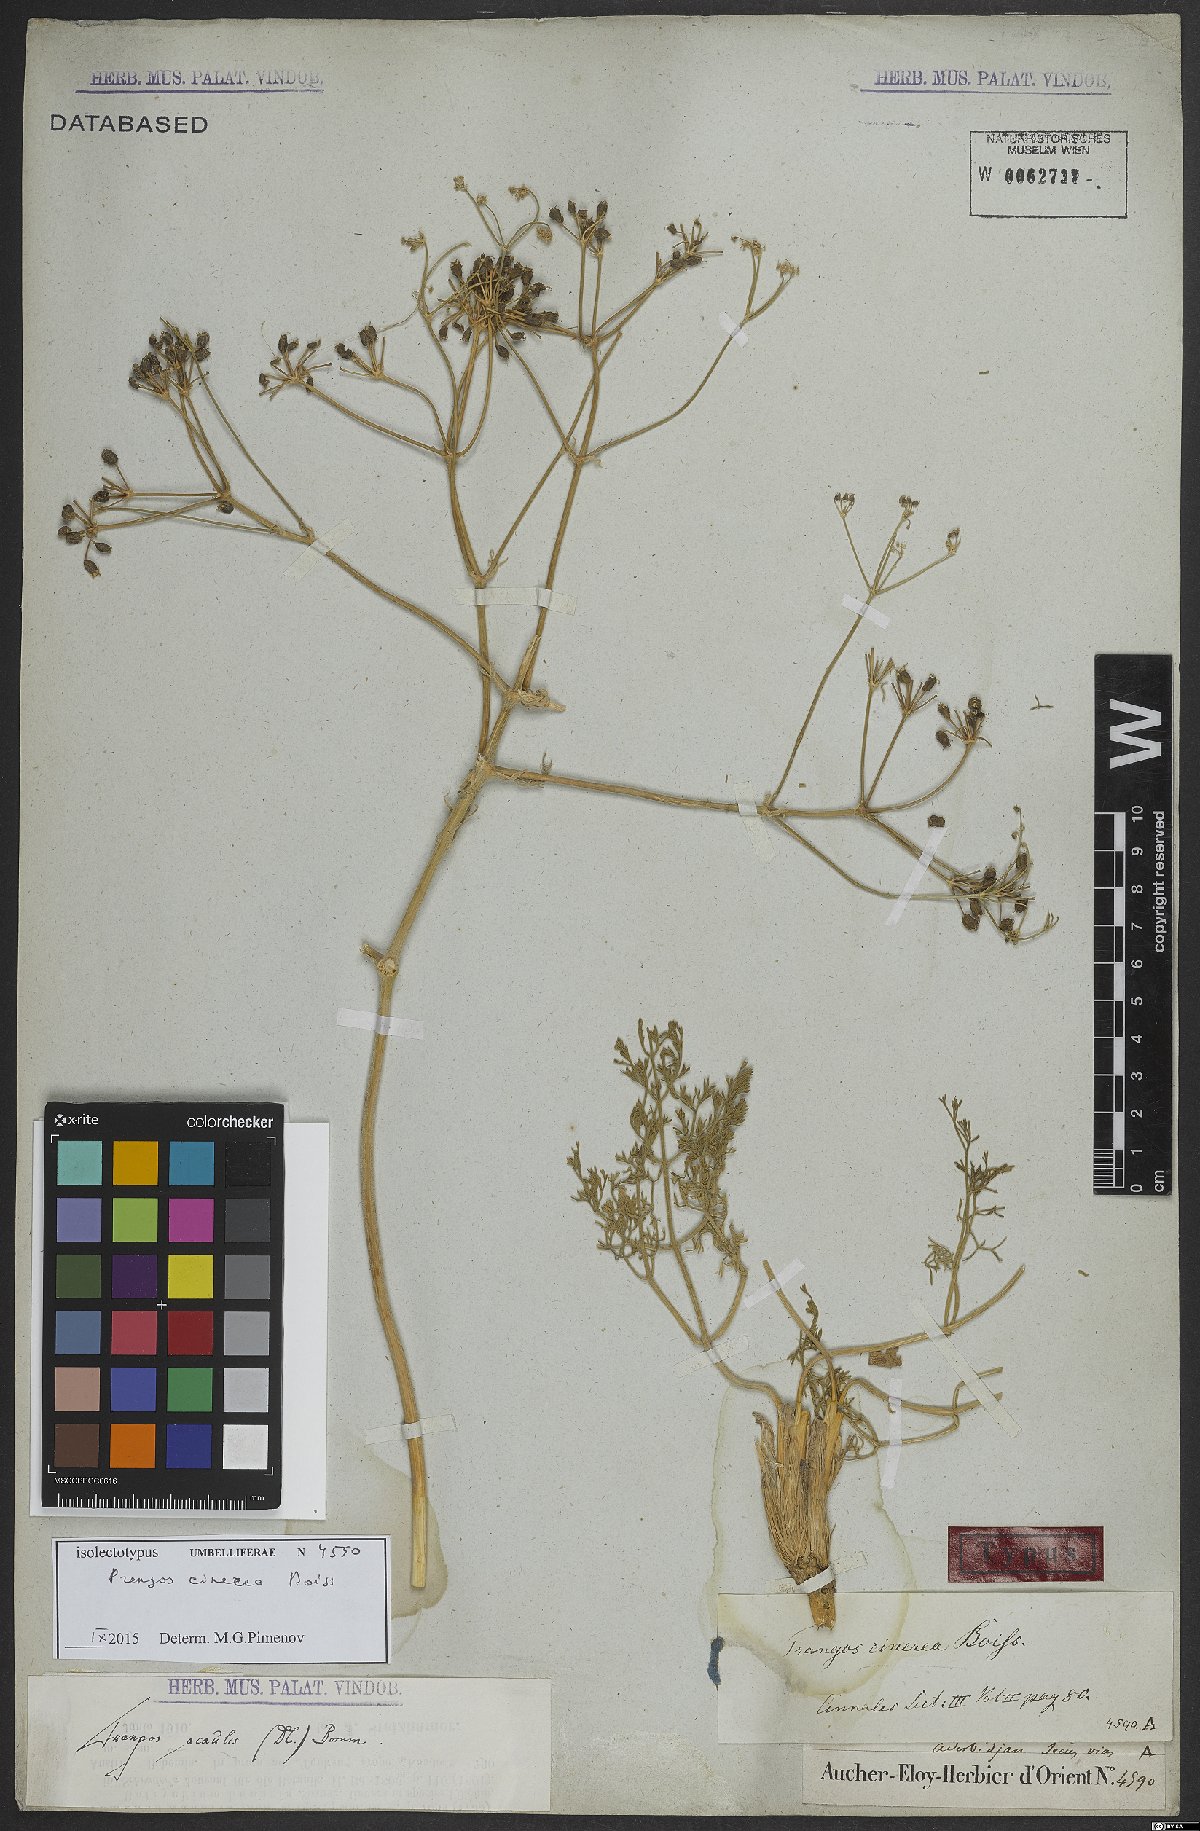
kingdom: Plantae
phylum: Tracheophyta
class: Magnoliopsida
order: Apiales
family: Apiaceae
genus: Prangos
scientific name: Prangos acaulis
